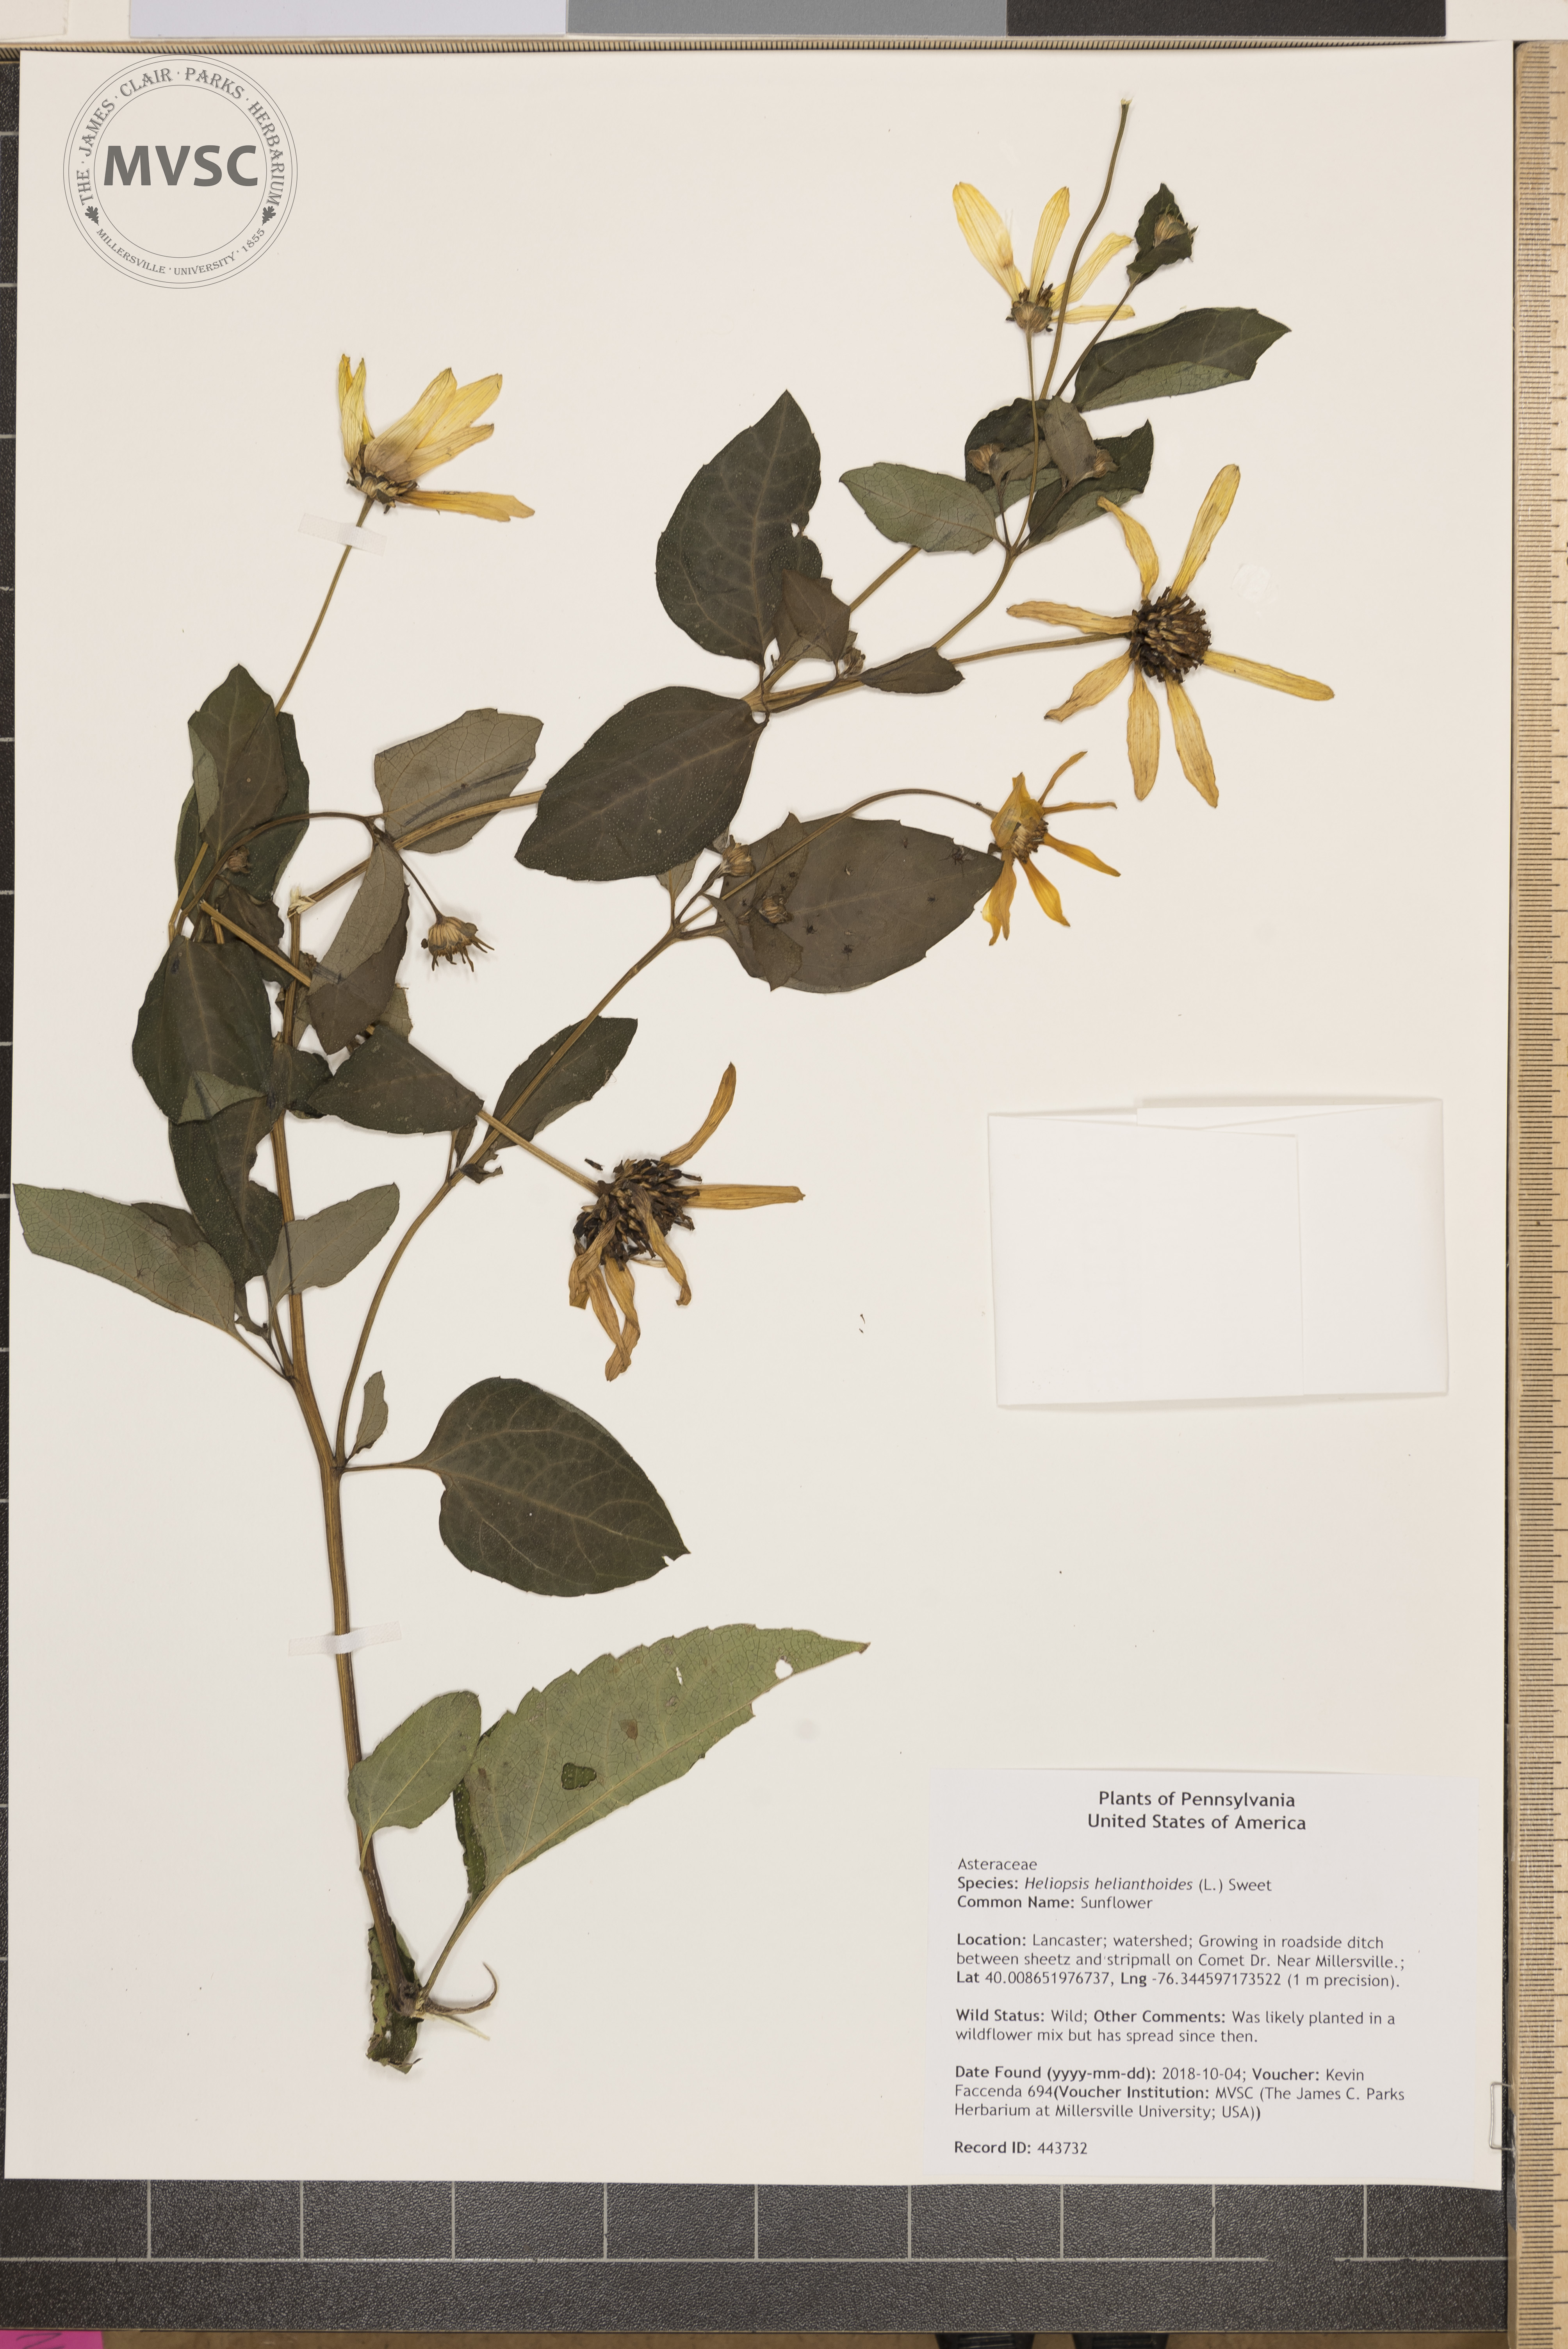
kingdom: Plantae
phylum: Tracheophyta
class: Magnoliopsida
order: Asterales
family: Asteraceae
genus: Heliopsis
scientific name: Heliopsis helianthoides
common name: Sunflower
